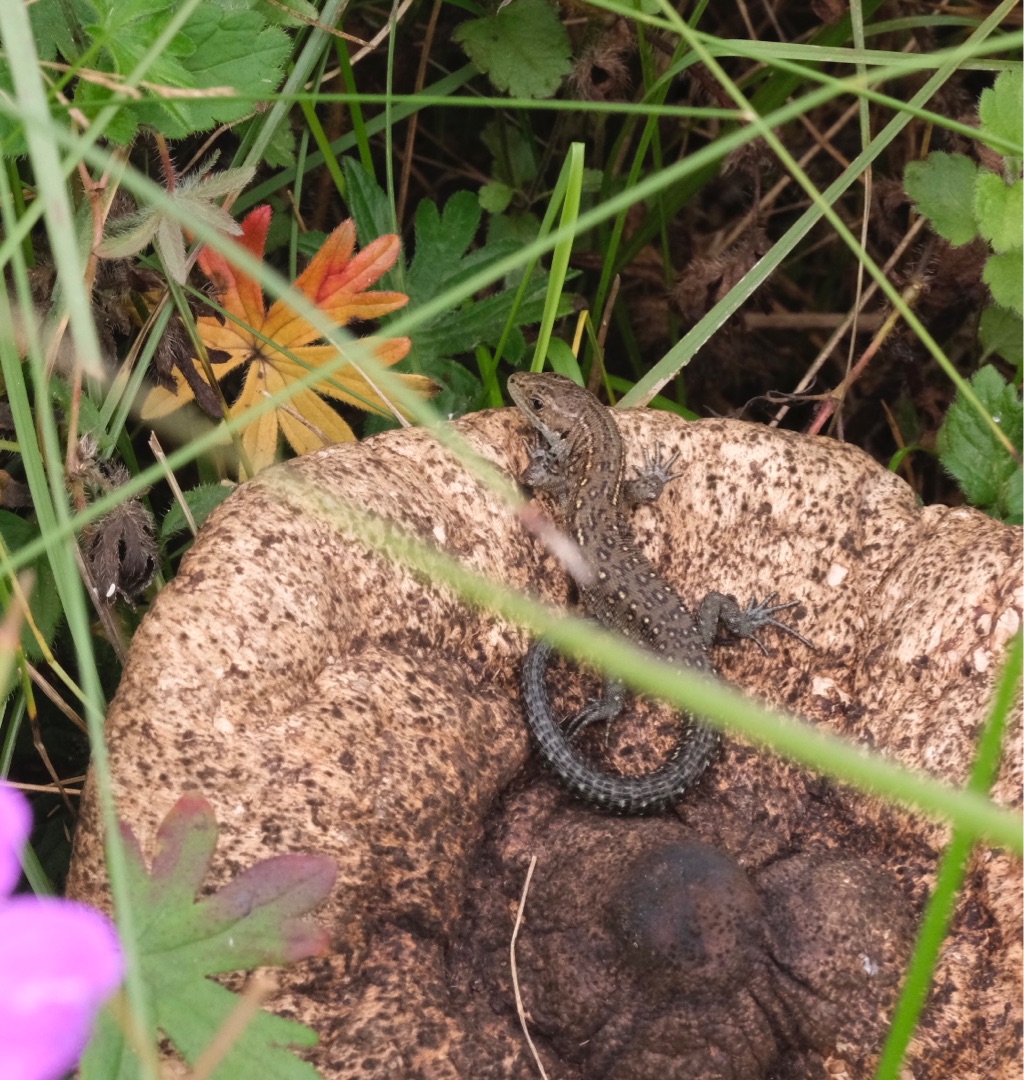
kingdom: Animalia
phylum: Chordata
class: Squamata
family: Lacertidae
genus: Zootoca
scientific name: Zootoca vivipara
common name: Skovfirben
